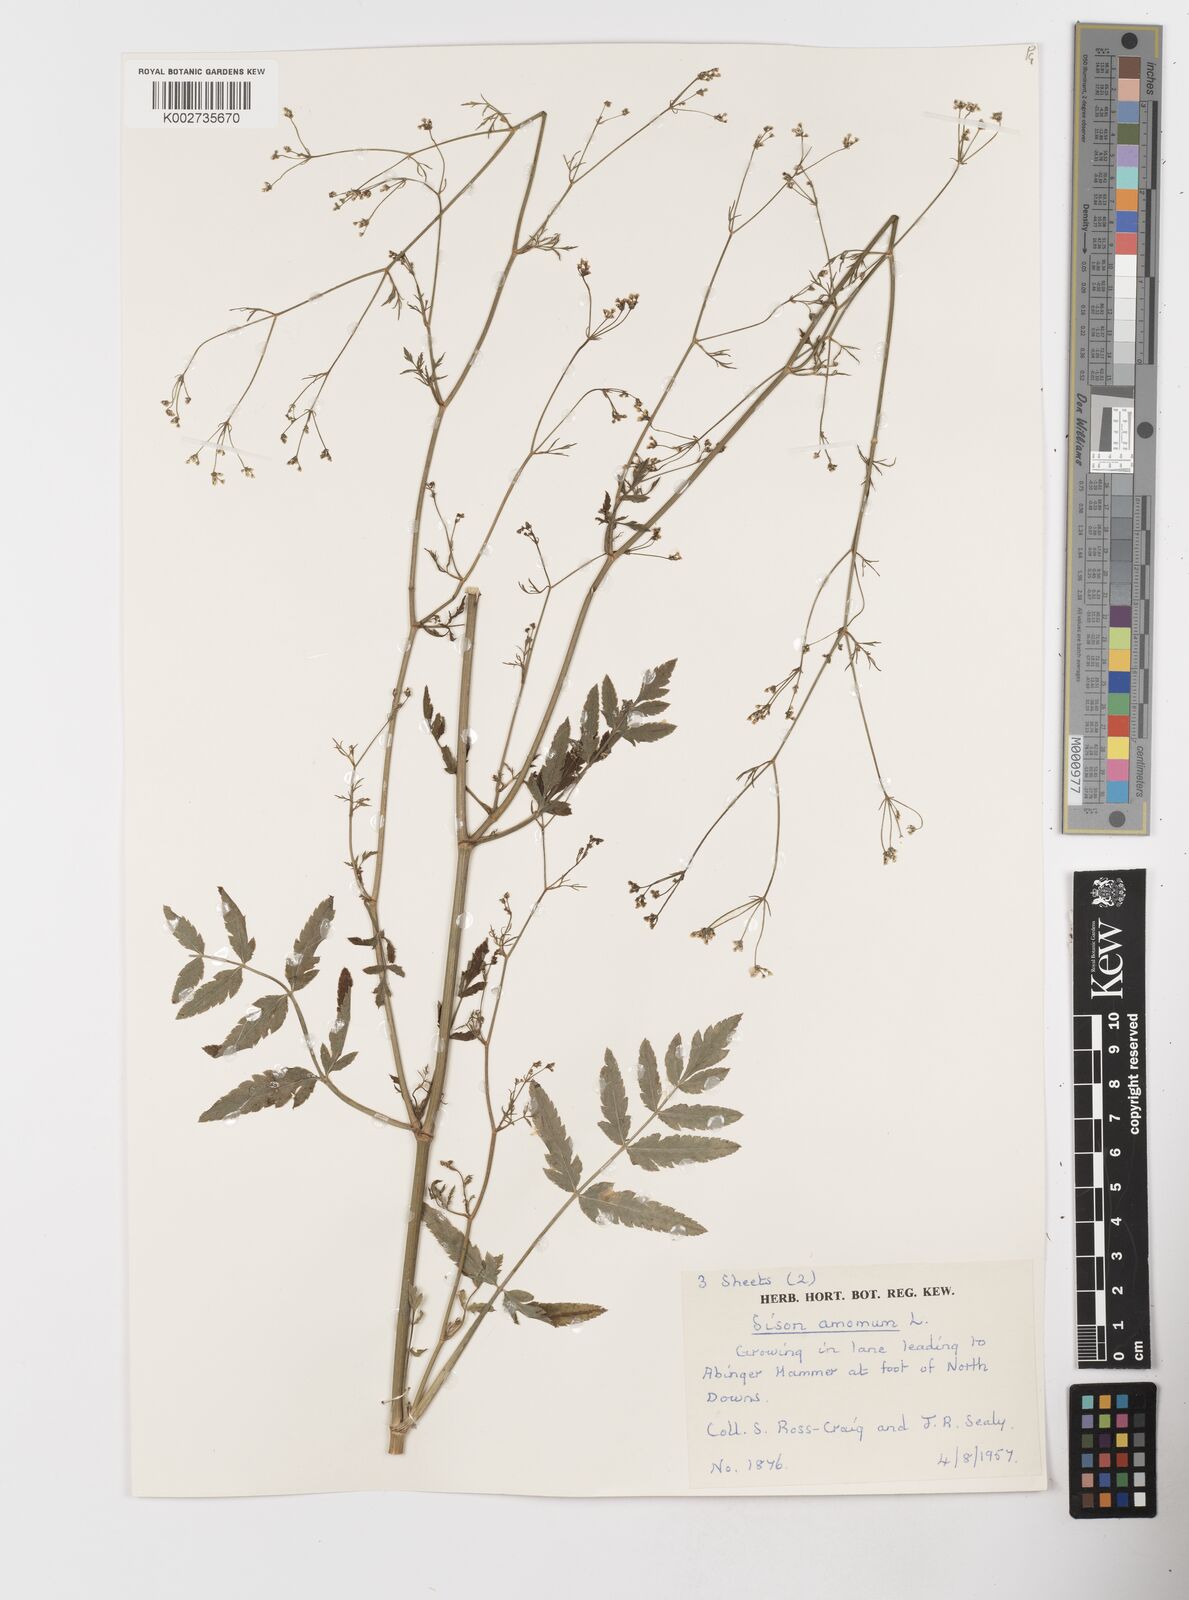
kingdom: Plantae
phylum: Tracheophyta
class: Magnoliopsida
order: Apiales
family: Apiaceae
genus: Sison
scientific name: Sison amomum
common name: Stone-parsley
